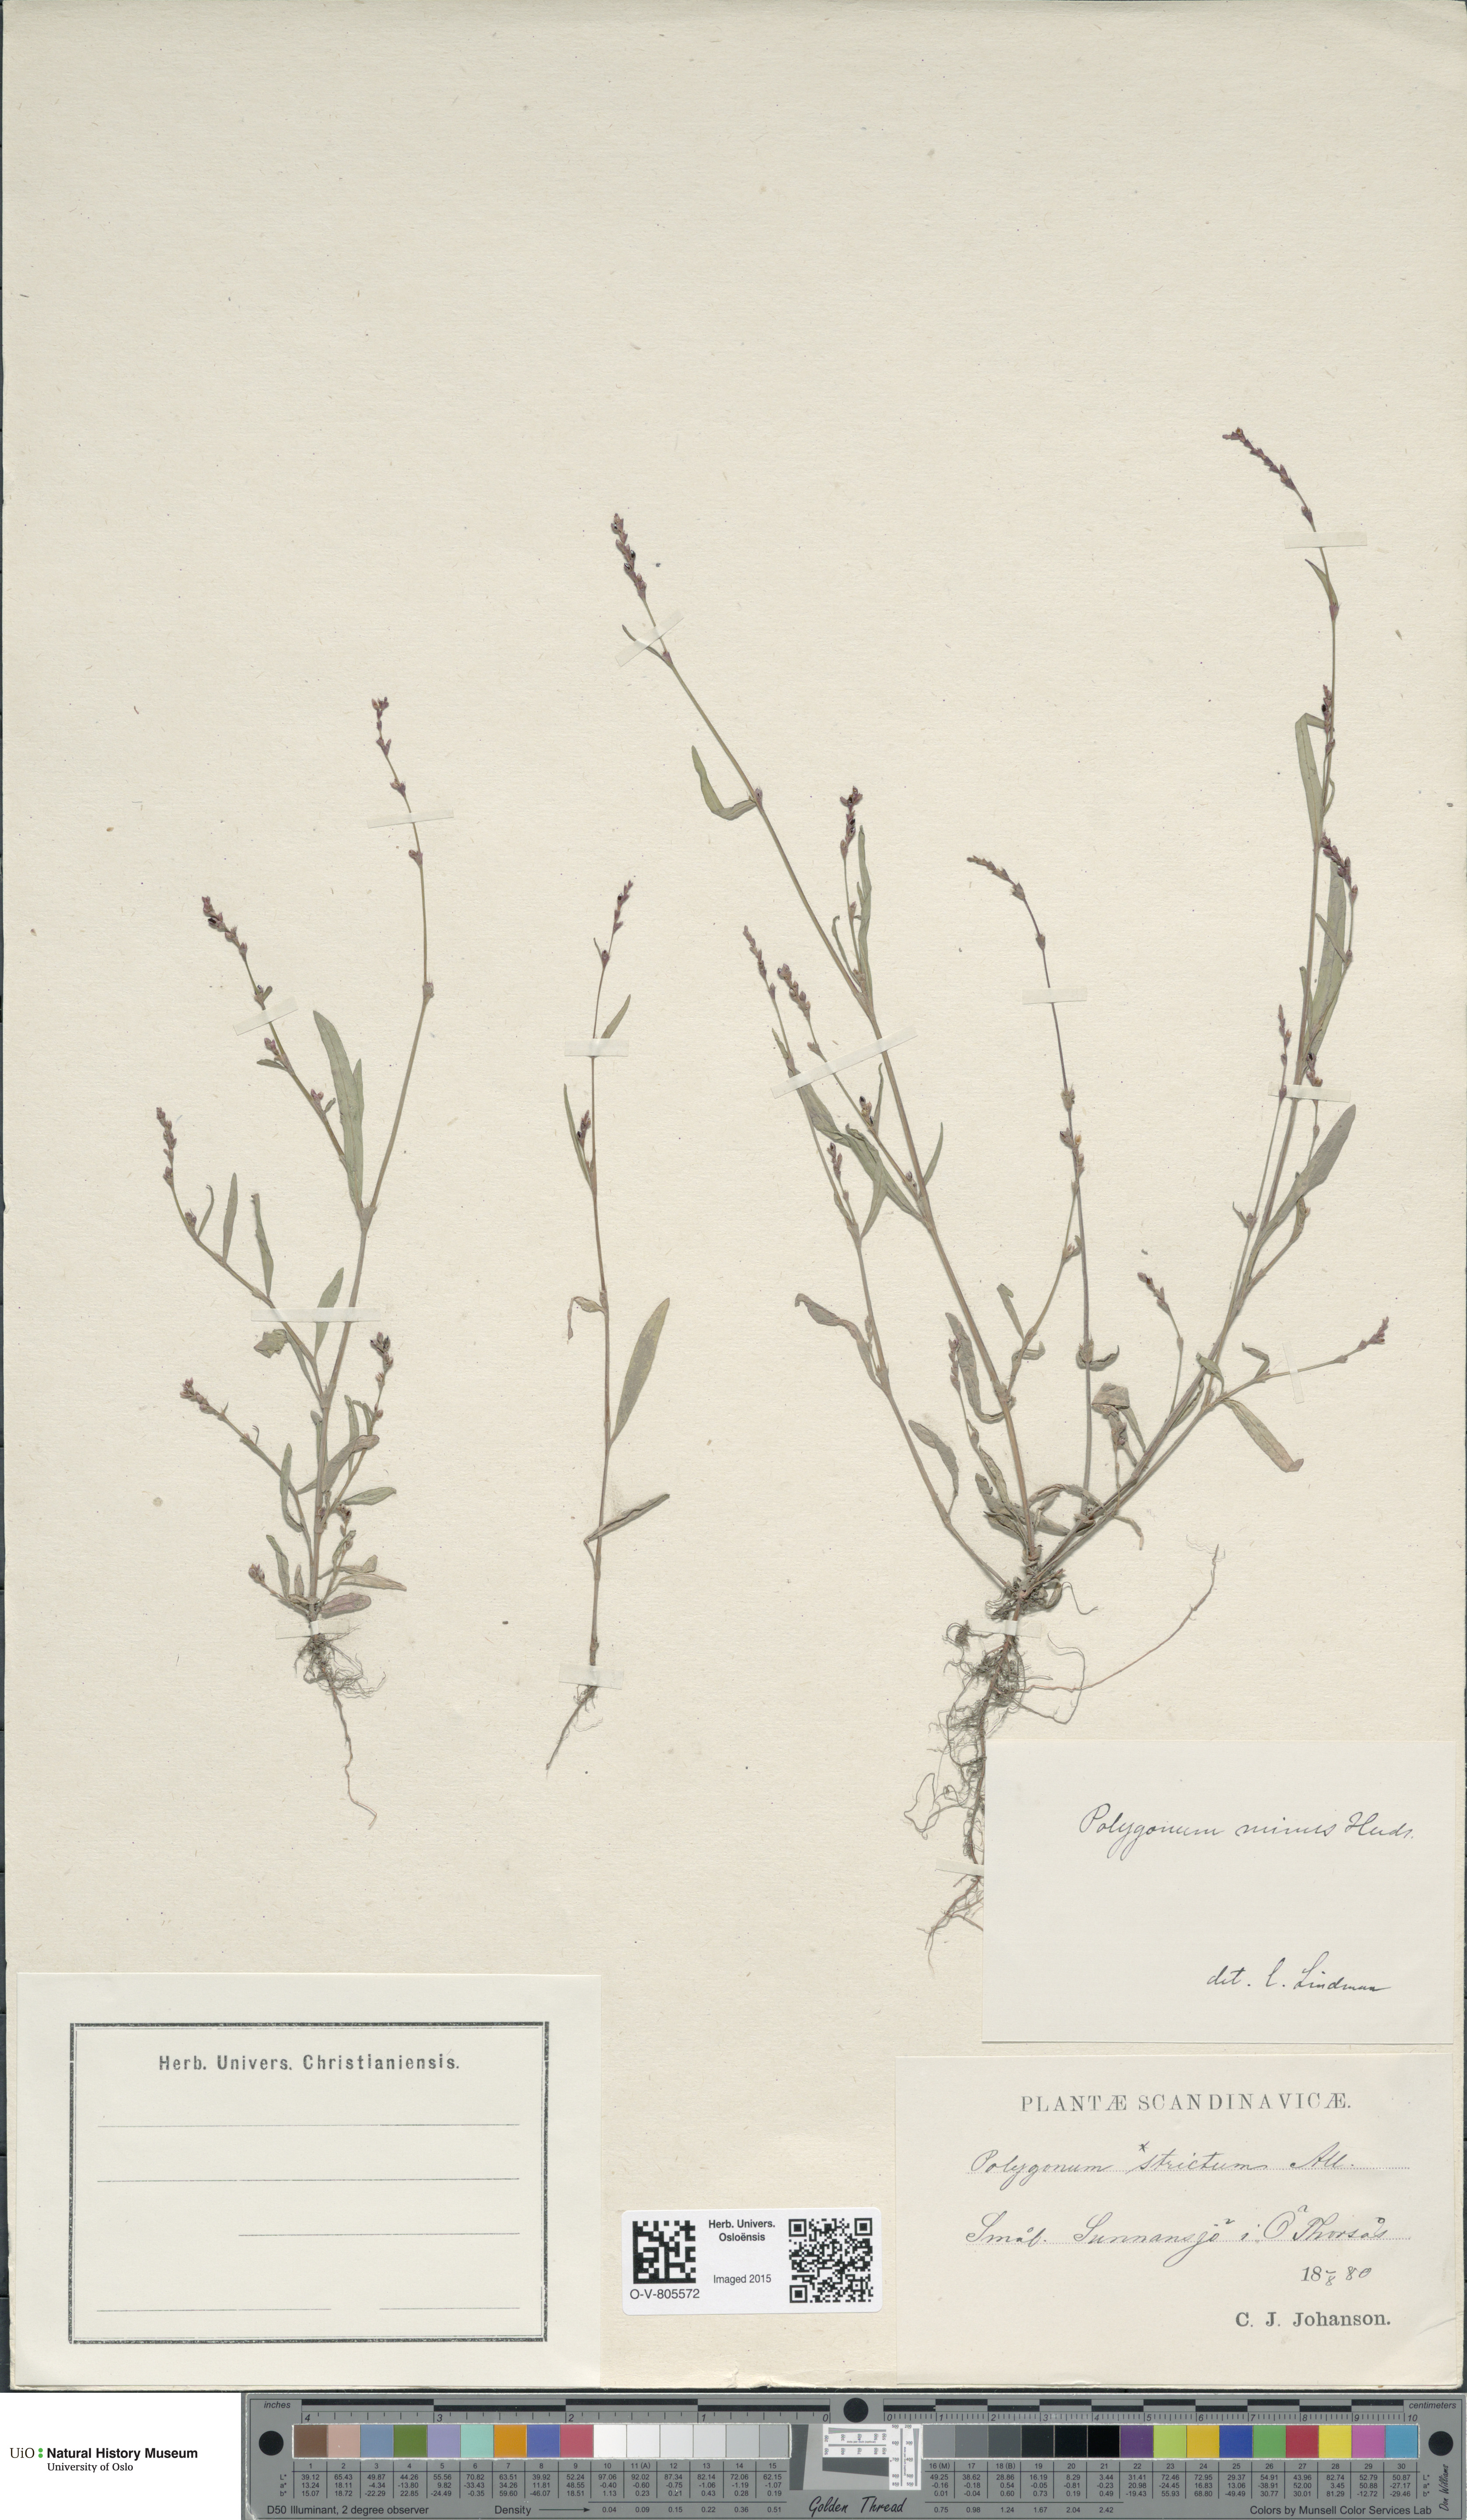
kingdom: Plantae
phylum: Tracheophyta
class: Magnoliopsida
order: Caryophyllales
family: Polygonaceae
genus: Persicaria
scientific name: Persicaria minor
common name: Small water-pepper
